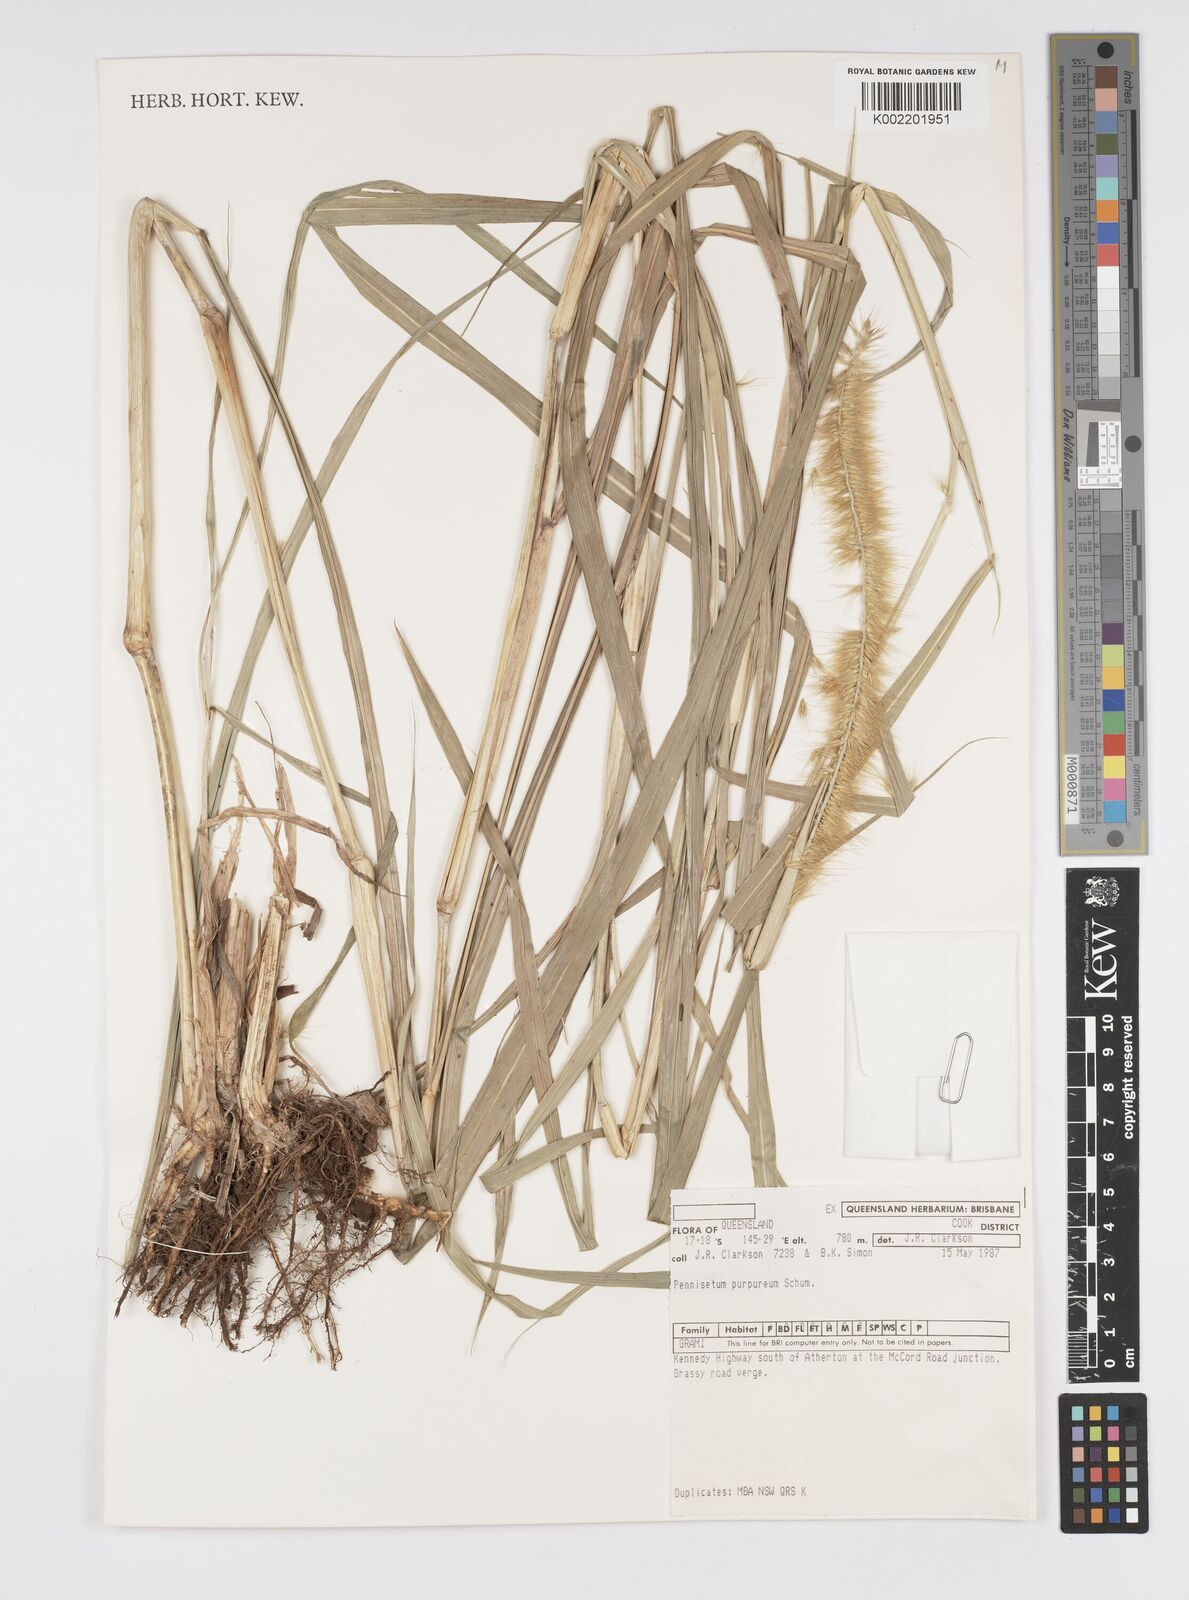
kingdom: Plantae
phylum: Tracheophyta
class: Liliopsida
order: Poales
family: Poaceae
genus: Cenchrus
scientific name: Cenchrus purpureus
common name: Elephant grass
